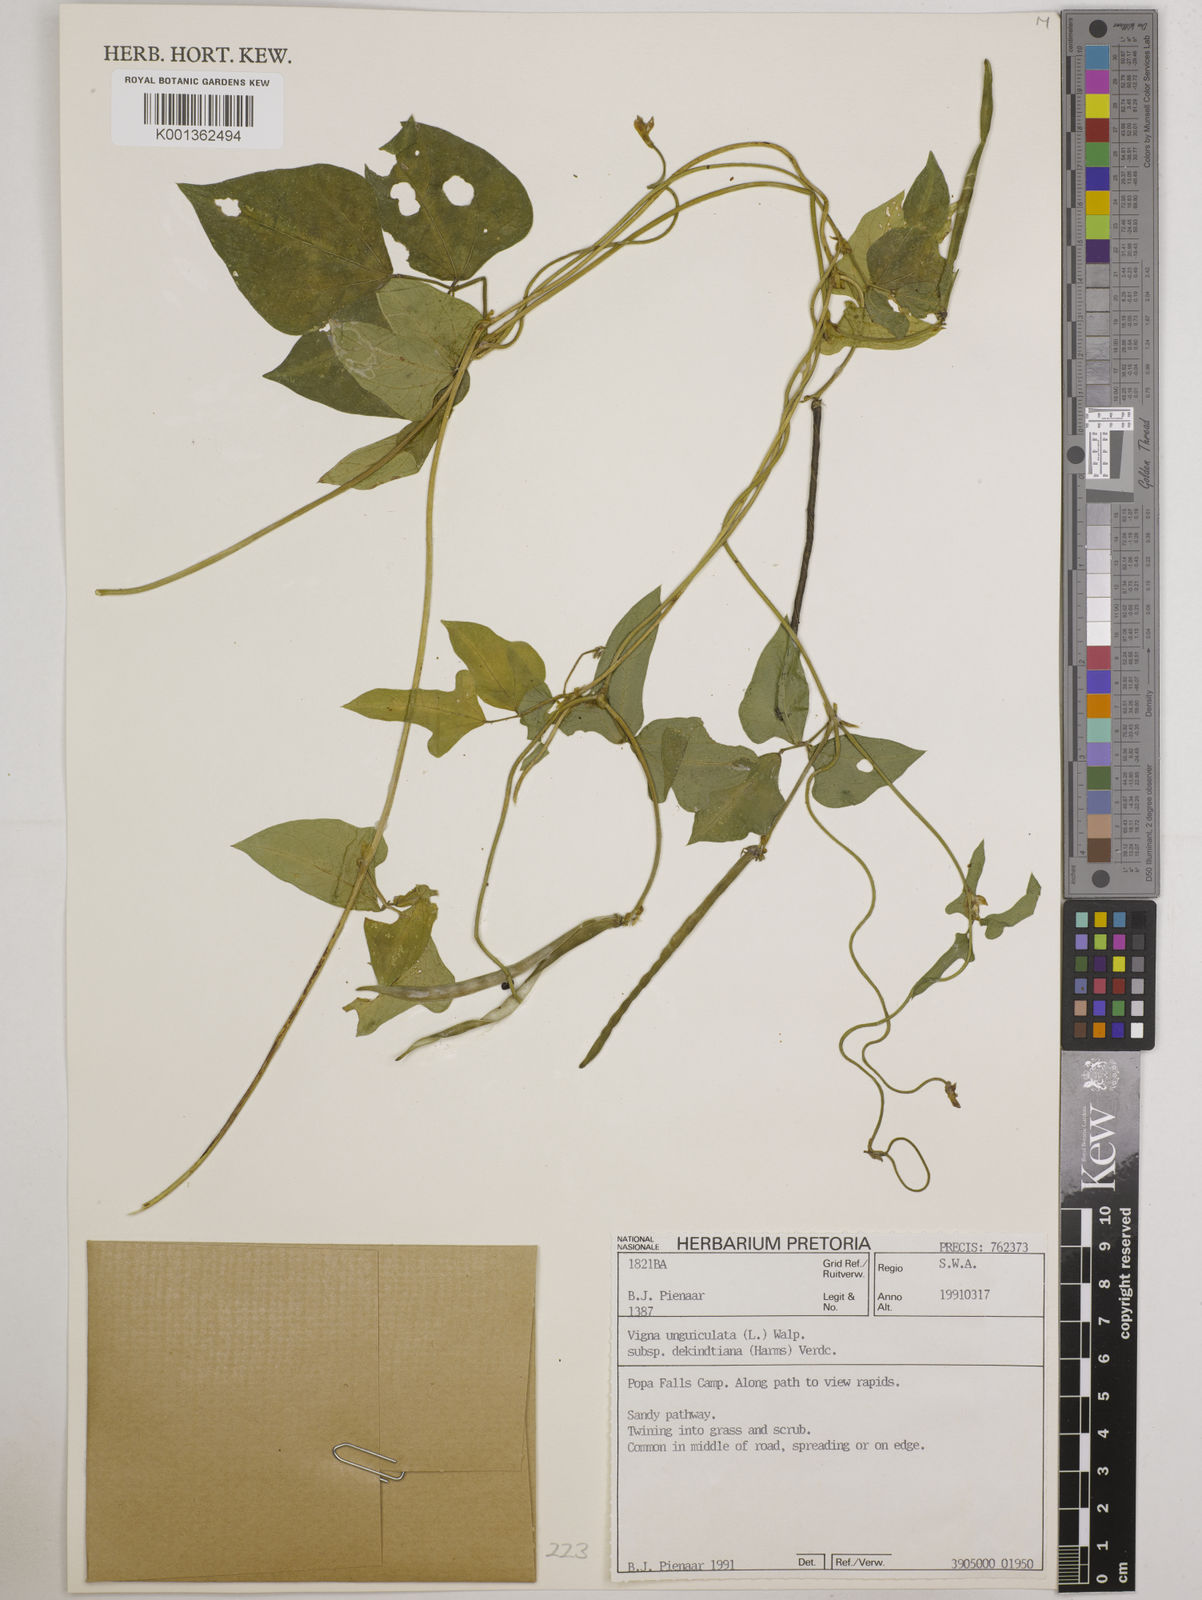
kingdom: Plantae
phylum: Tracheophyta
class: Magnoliopsida
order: Fabales
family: Fabaceae
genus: Vigna
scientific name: Vigna
